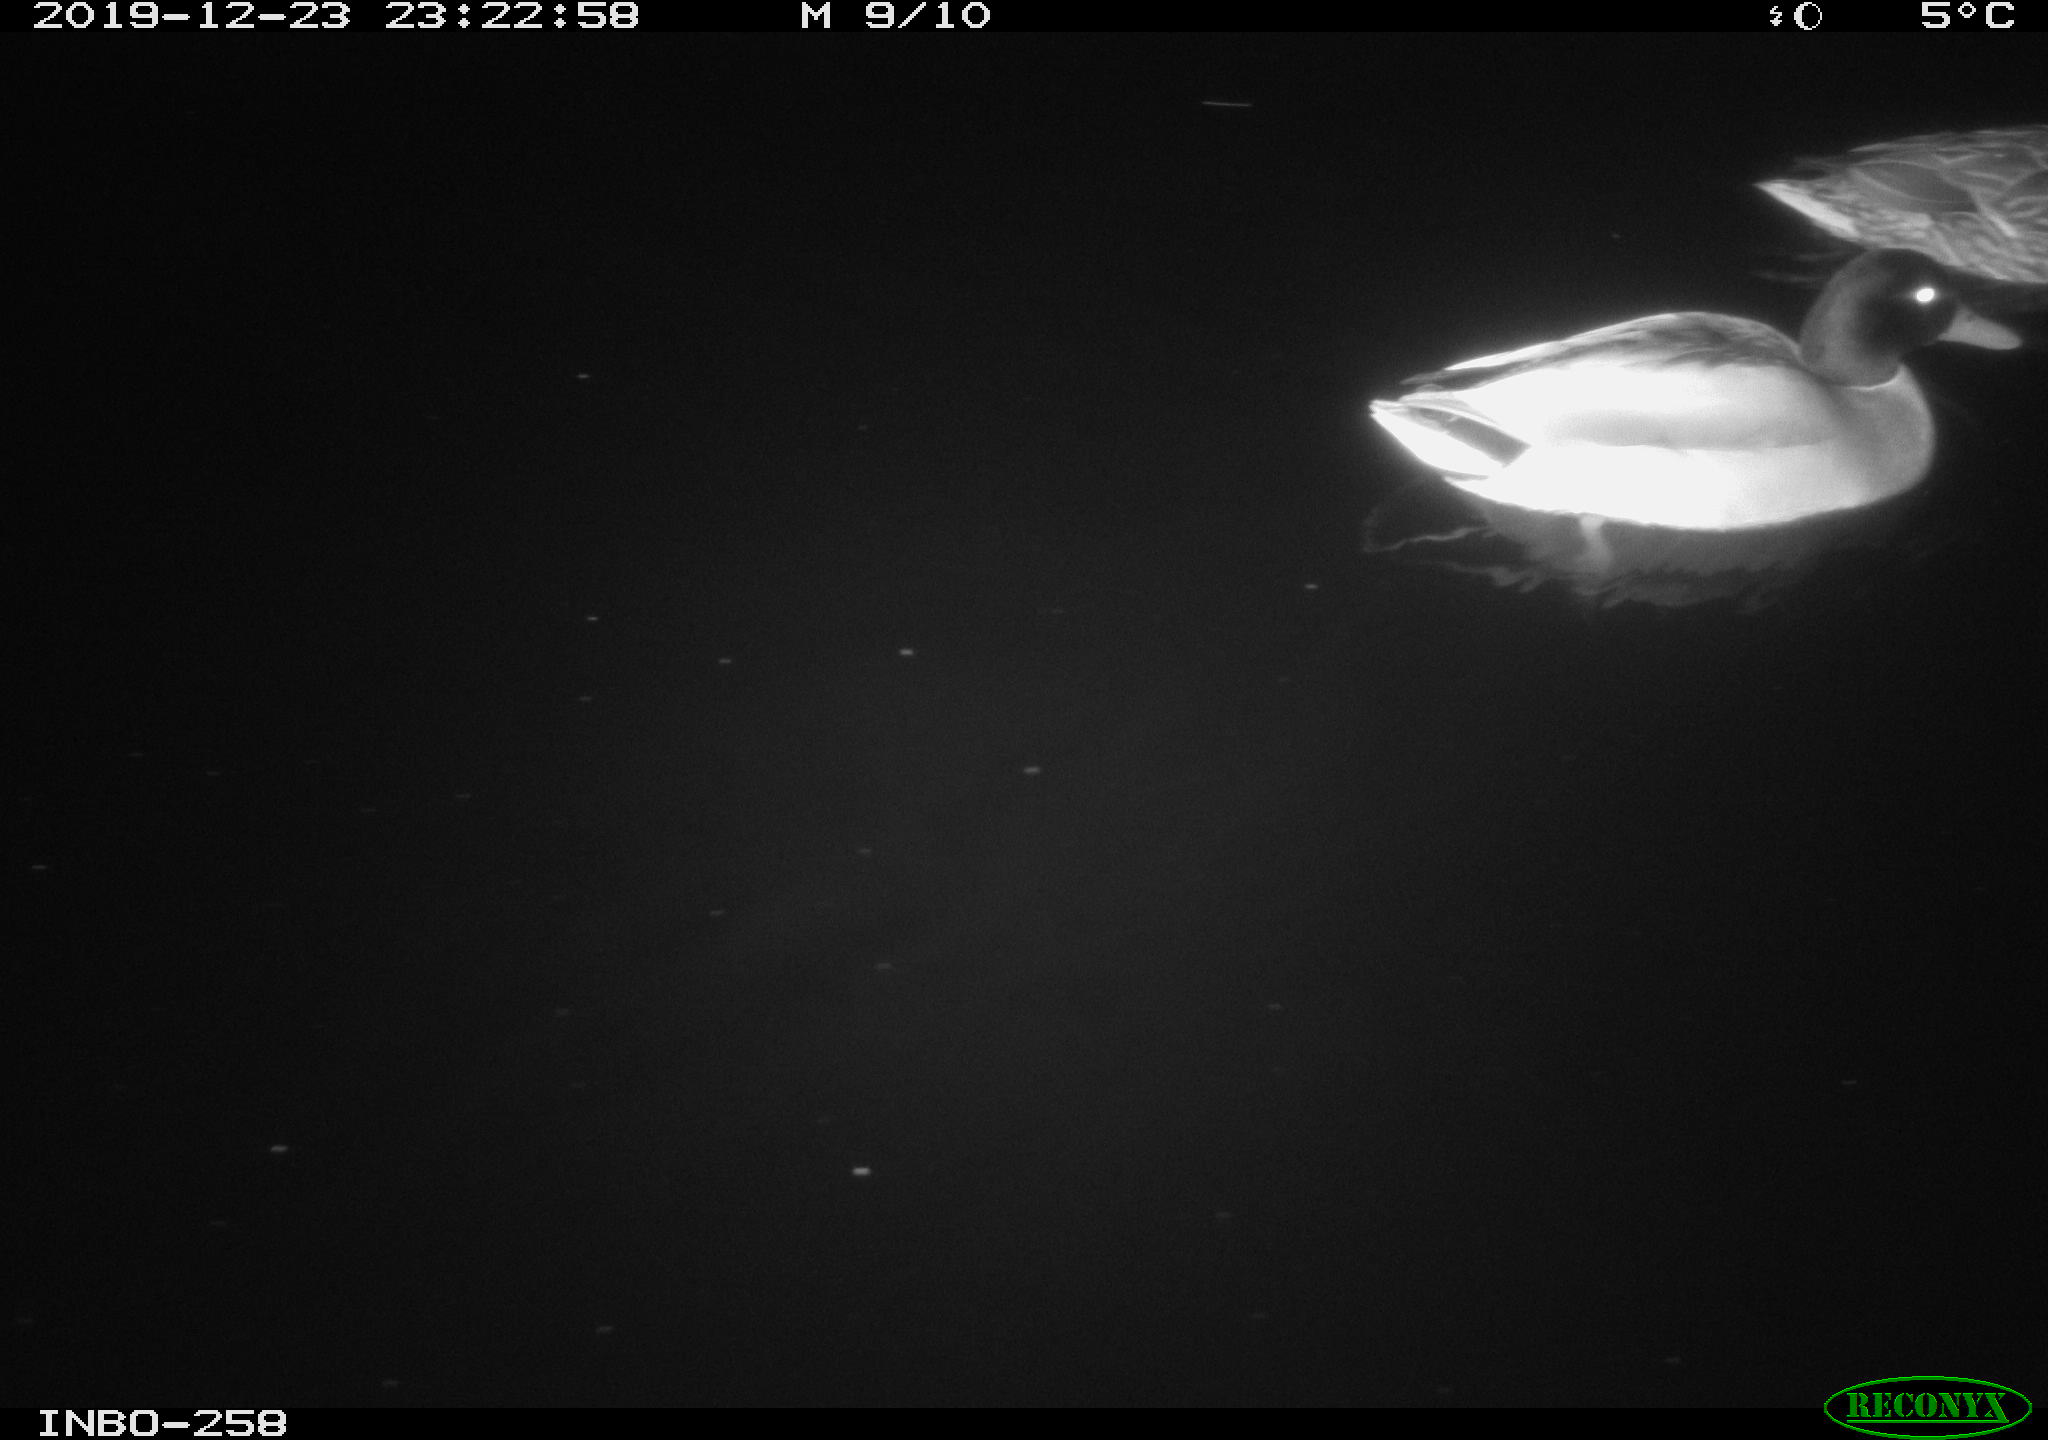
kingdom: Animalia
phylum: Chordata
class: Aves
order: Anseriformes
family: Anatidae
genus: Anas
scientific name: Anas platyrhynchos
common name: Mallard
